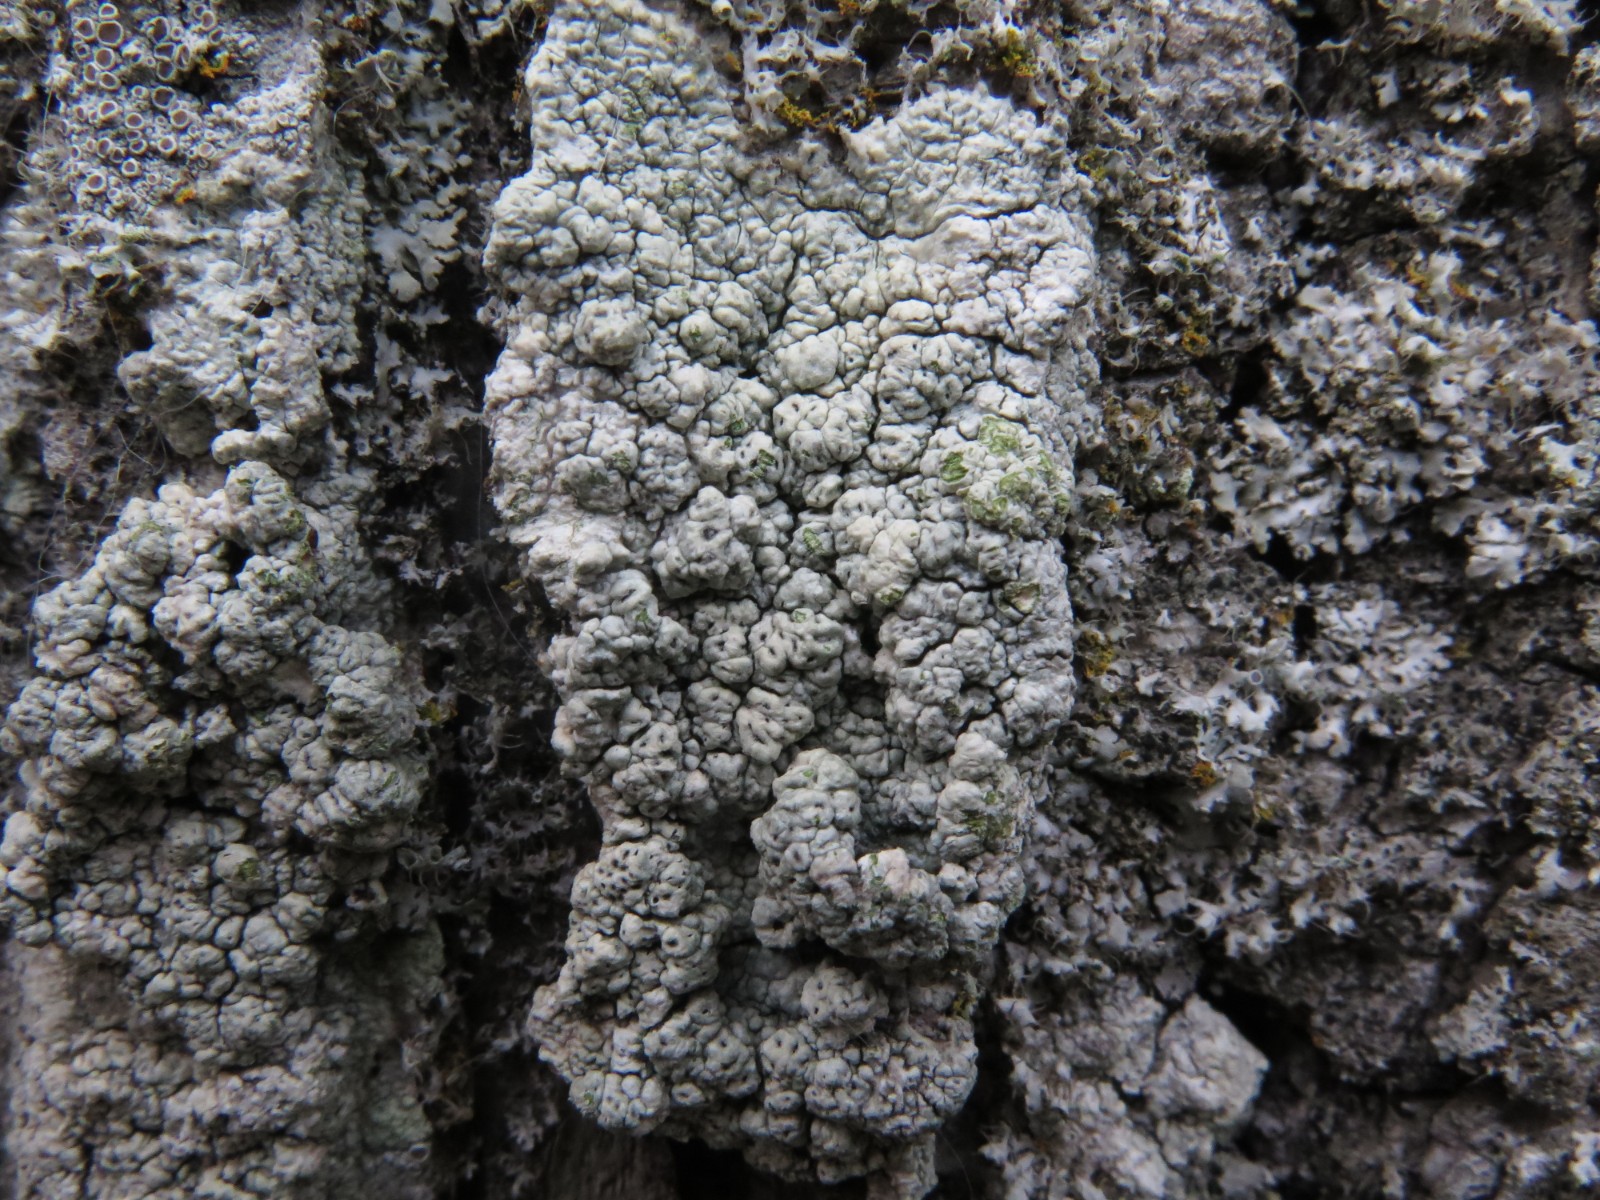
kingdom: Fungi
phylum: Ascomycota
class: Lecanoromycetes
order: Pertusariales
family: Pertusariaceae
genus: Pertusaria
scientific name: Pertusaria pertusa
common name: almindelig prikvortelav
